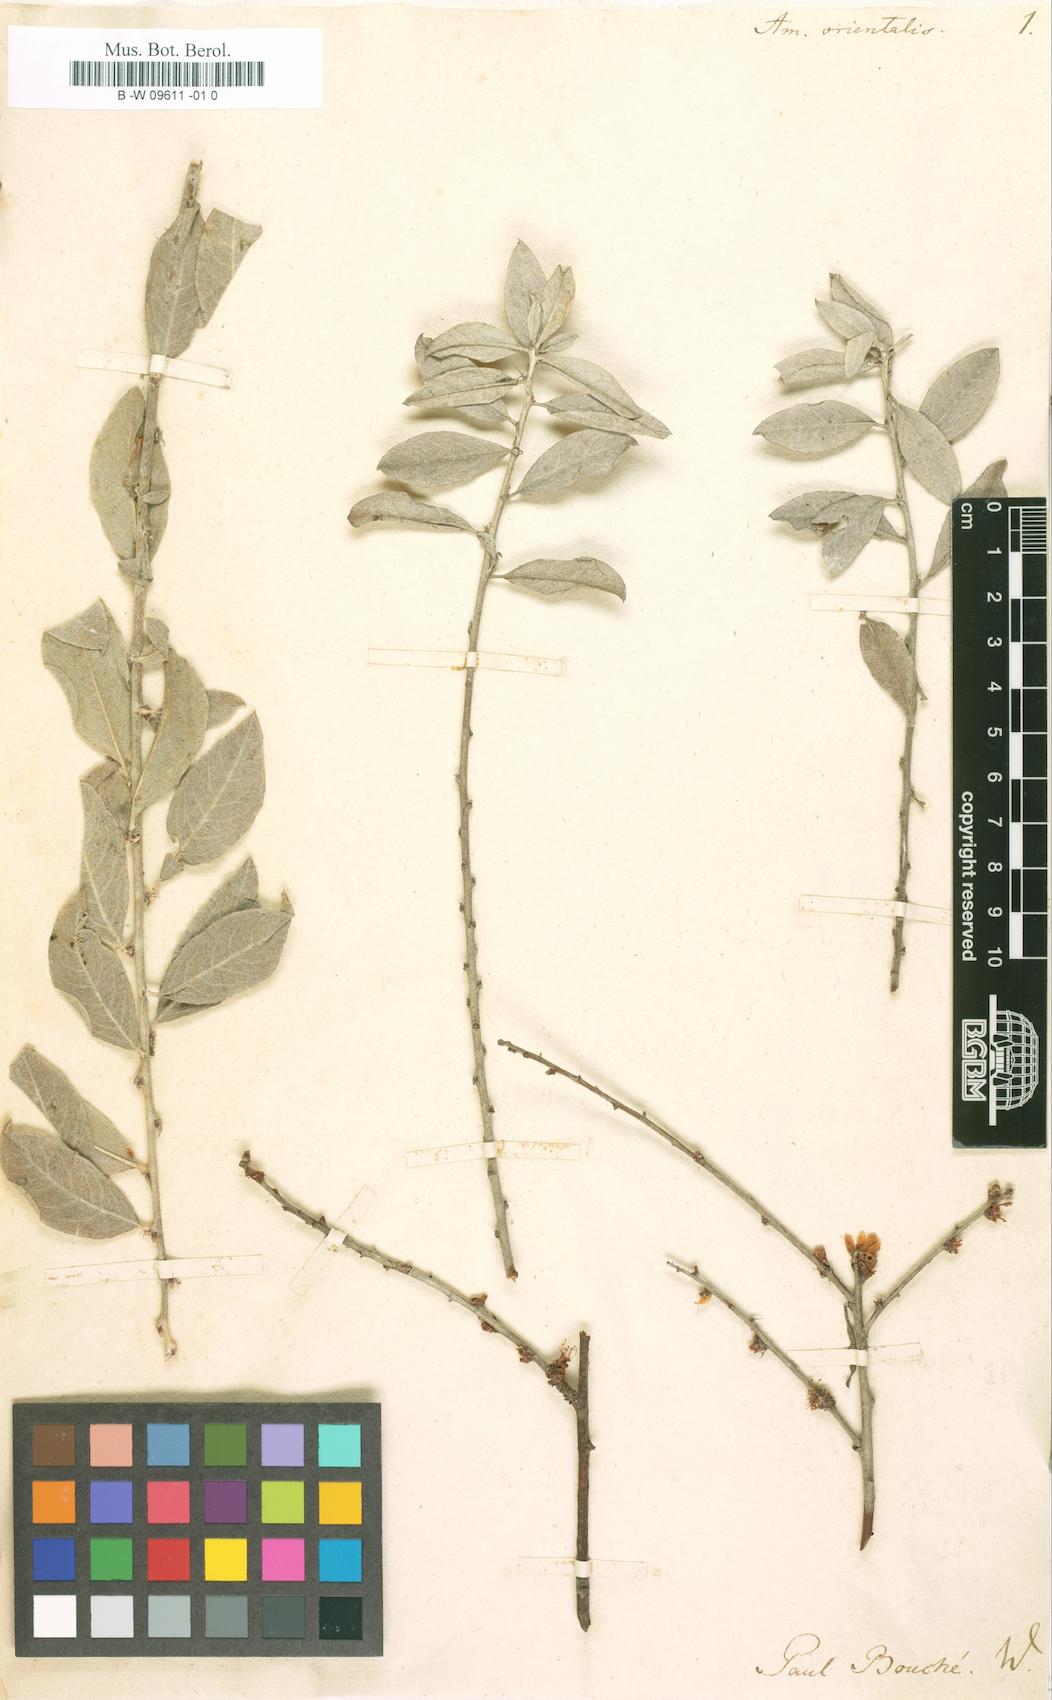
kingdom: Plantae
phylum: Tracheophyta
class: Magnoliopsida
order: Rosales
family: Rosaceae
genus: Prunus
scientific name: Prunus argentea
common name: Silver almond
